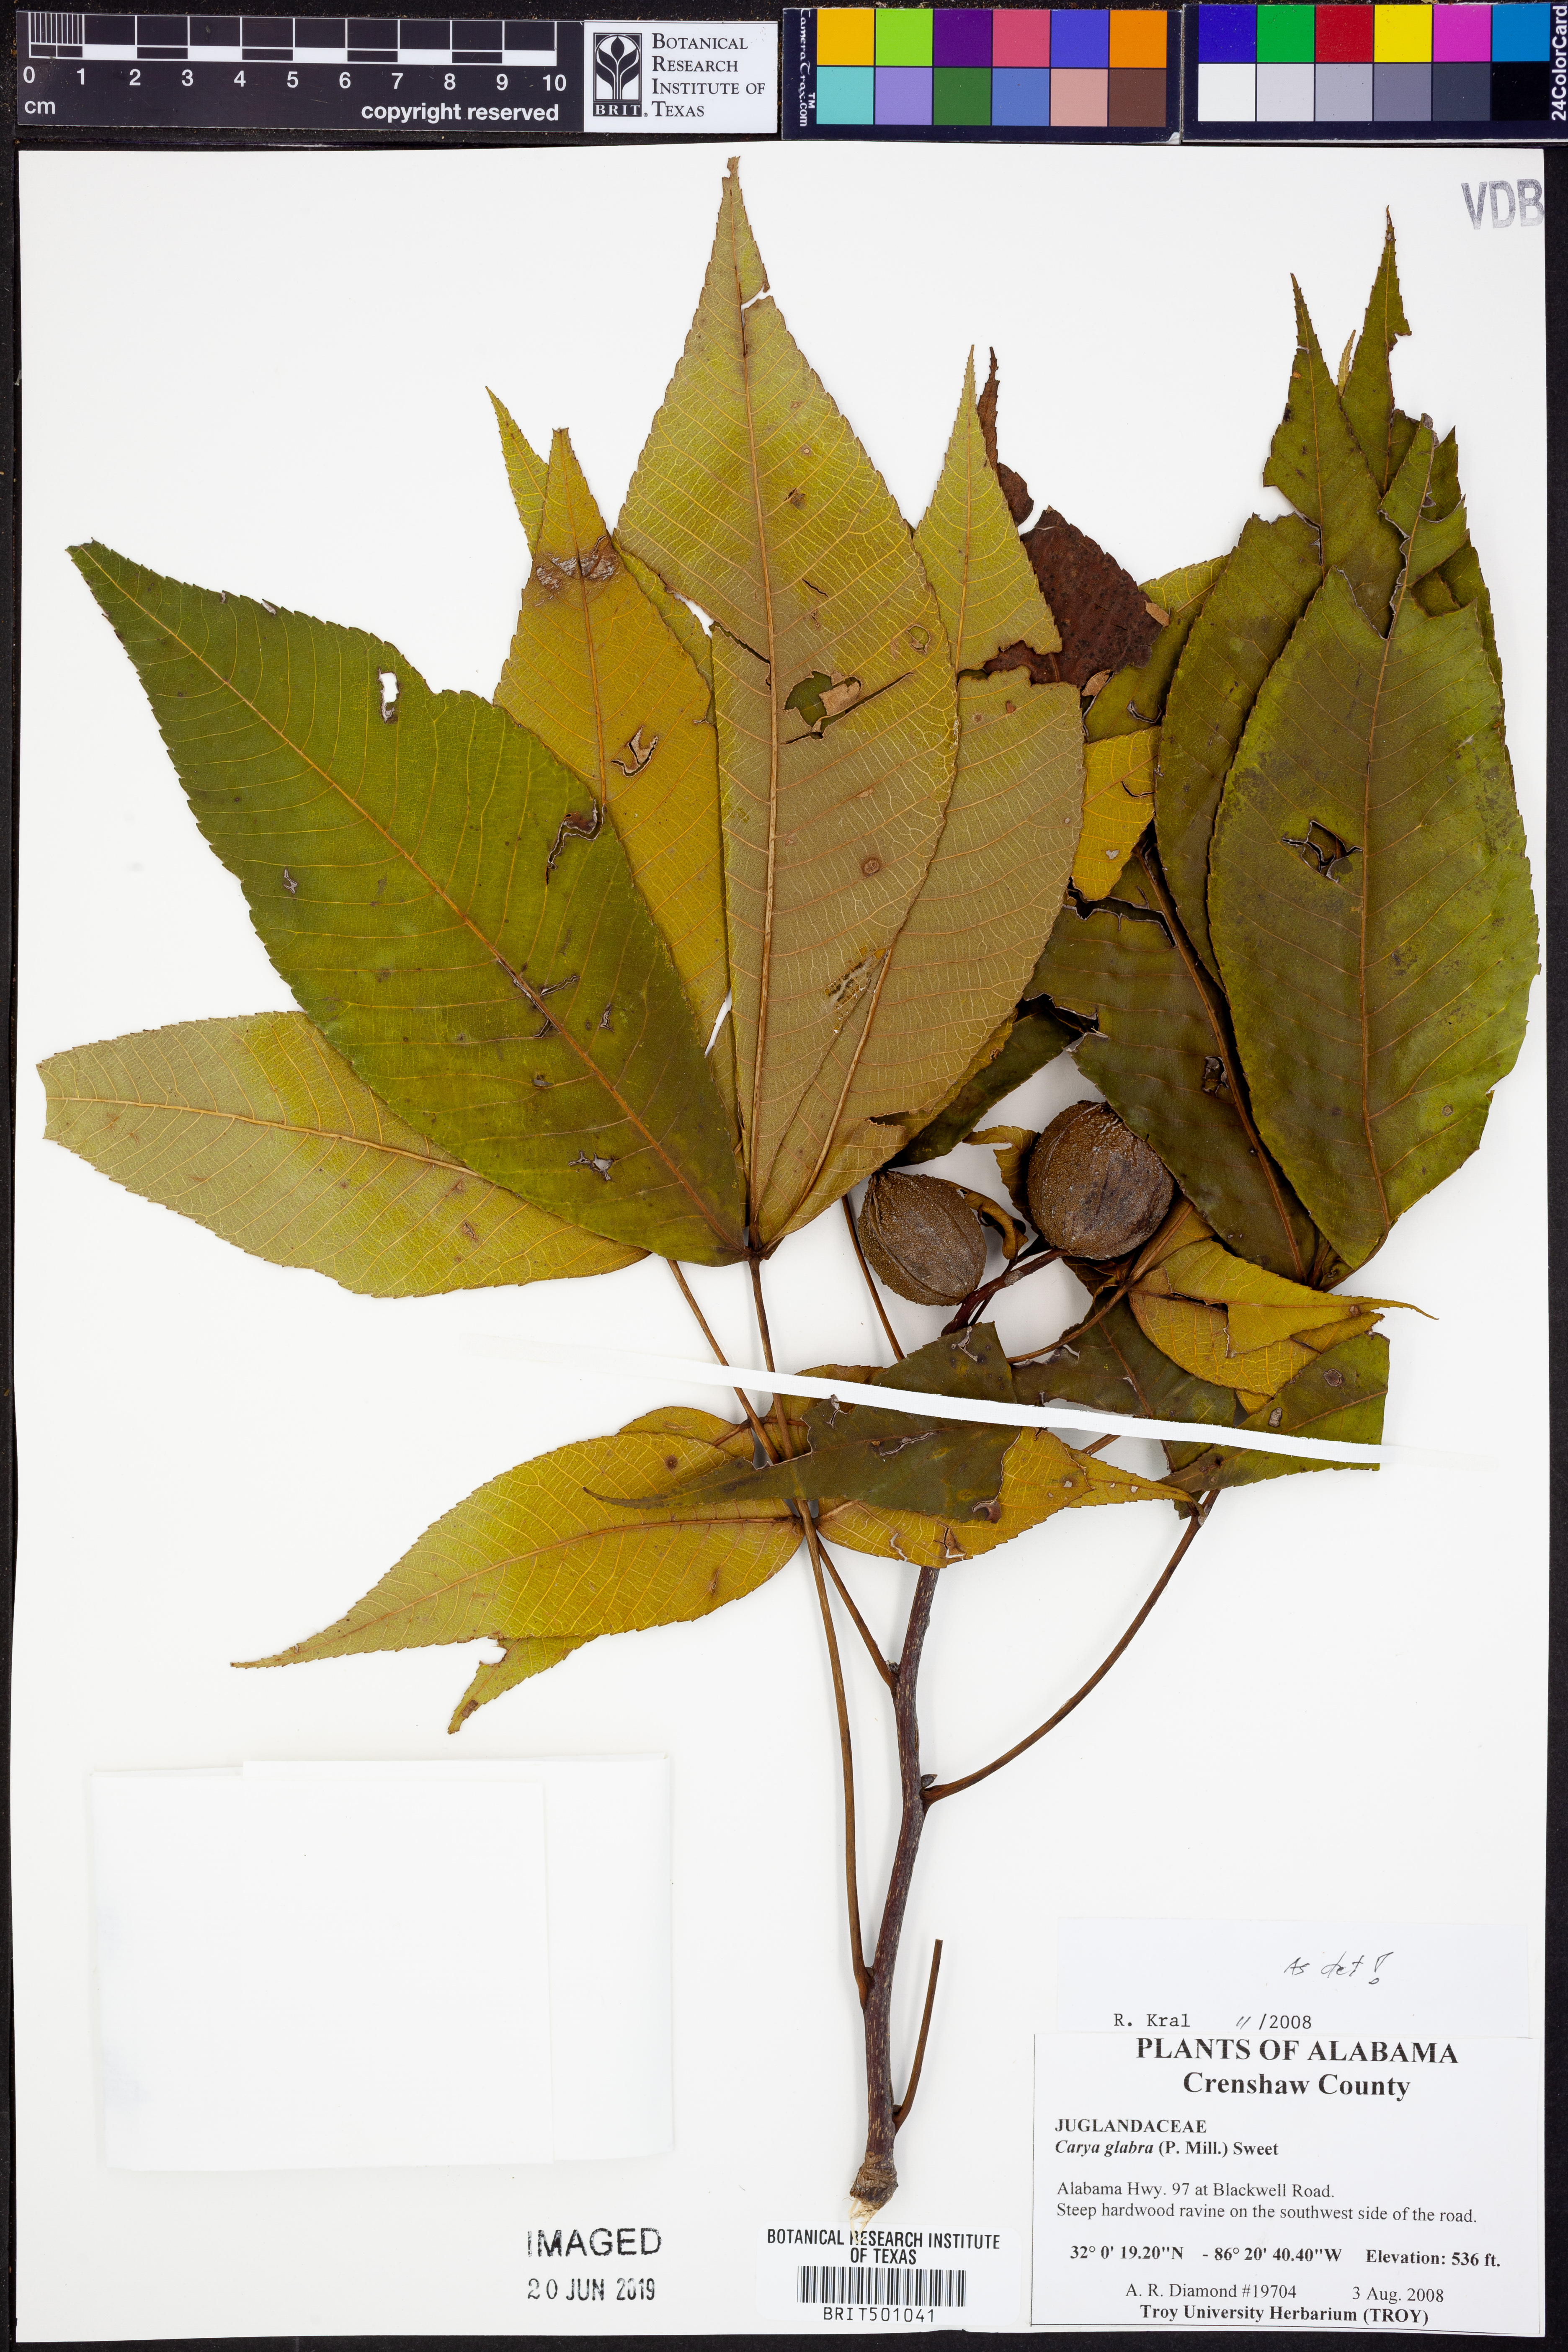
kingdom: Plantae
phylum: Tracheophyta
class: Magnoliopsida
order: Fagales
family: Juglandaceae
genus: Carya
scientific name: Carya glabra
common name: Pignut hickory
